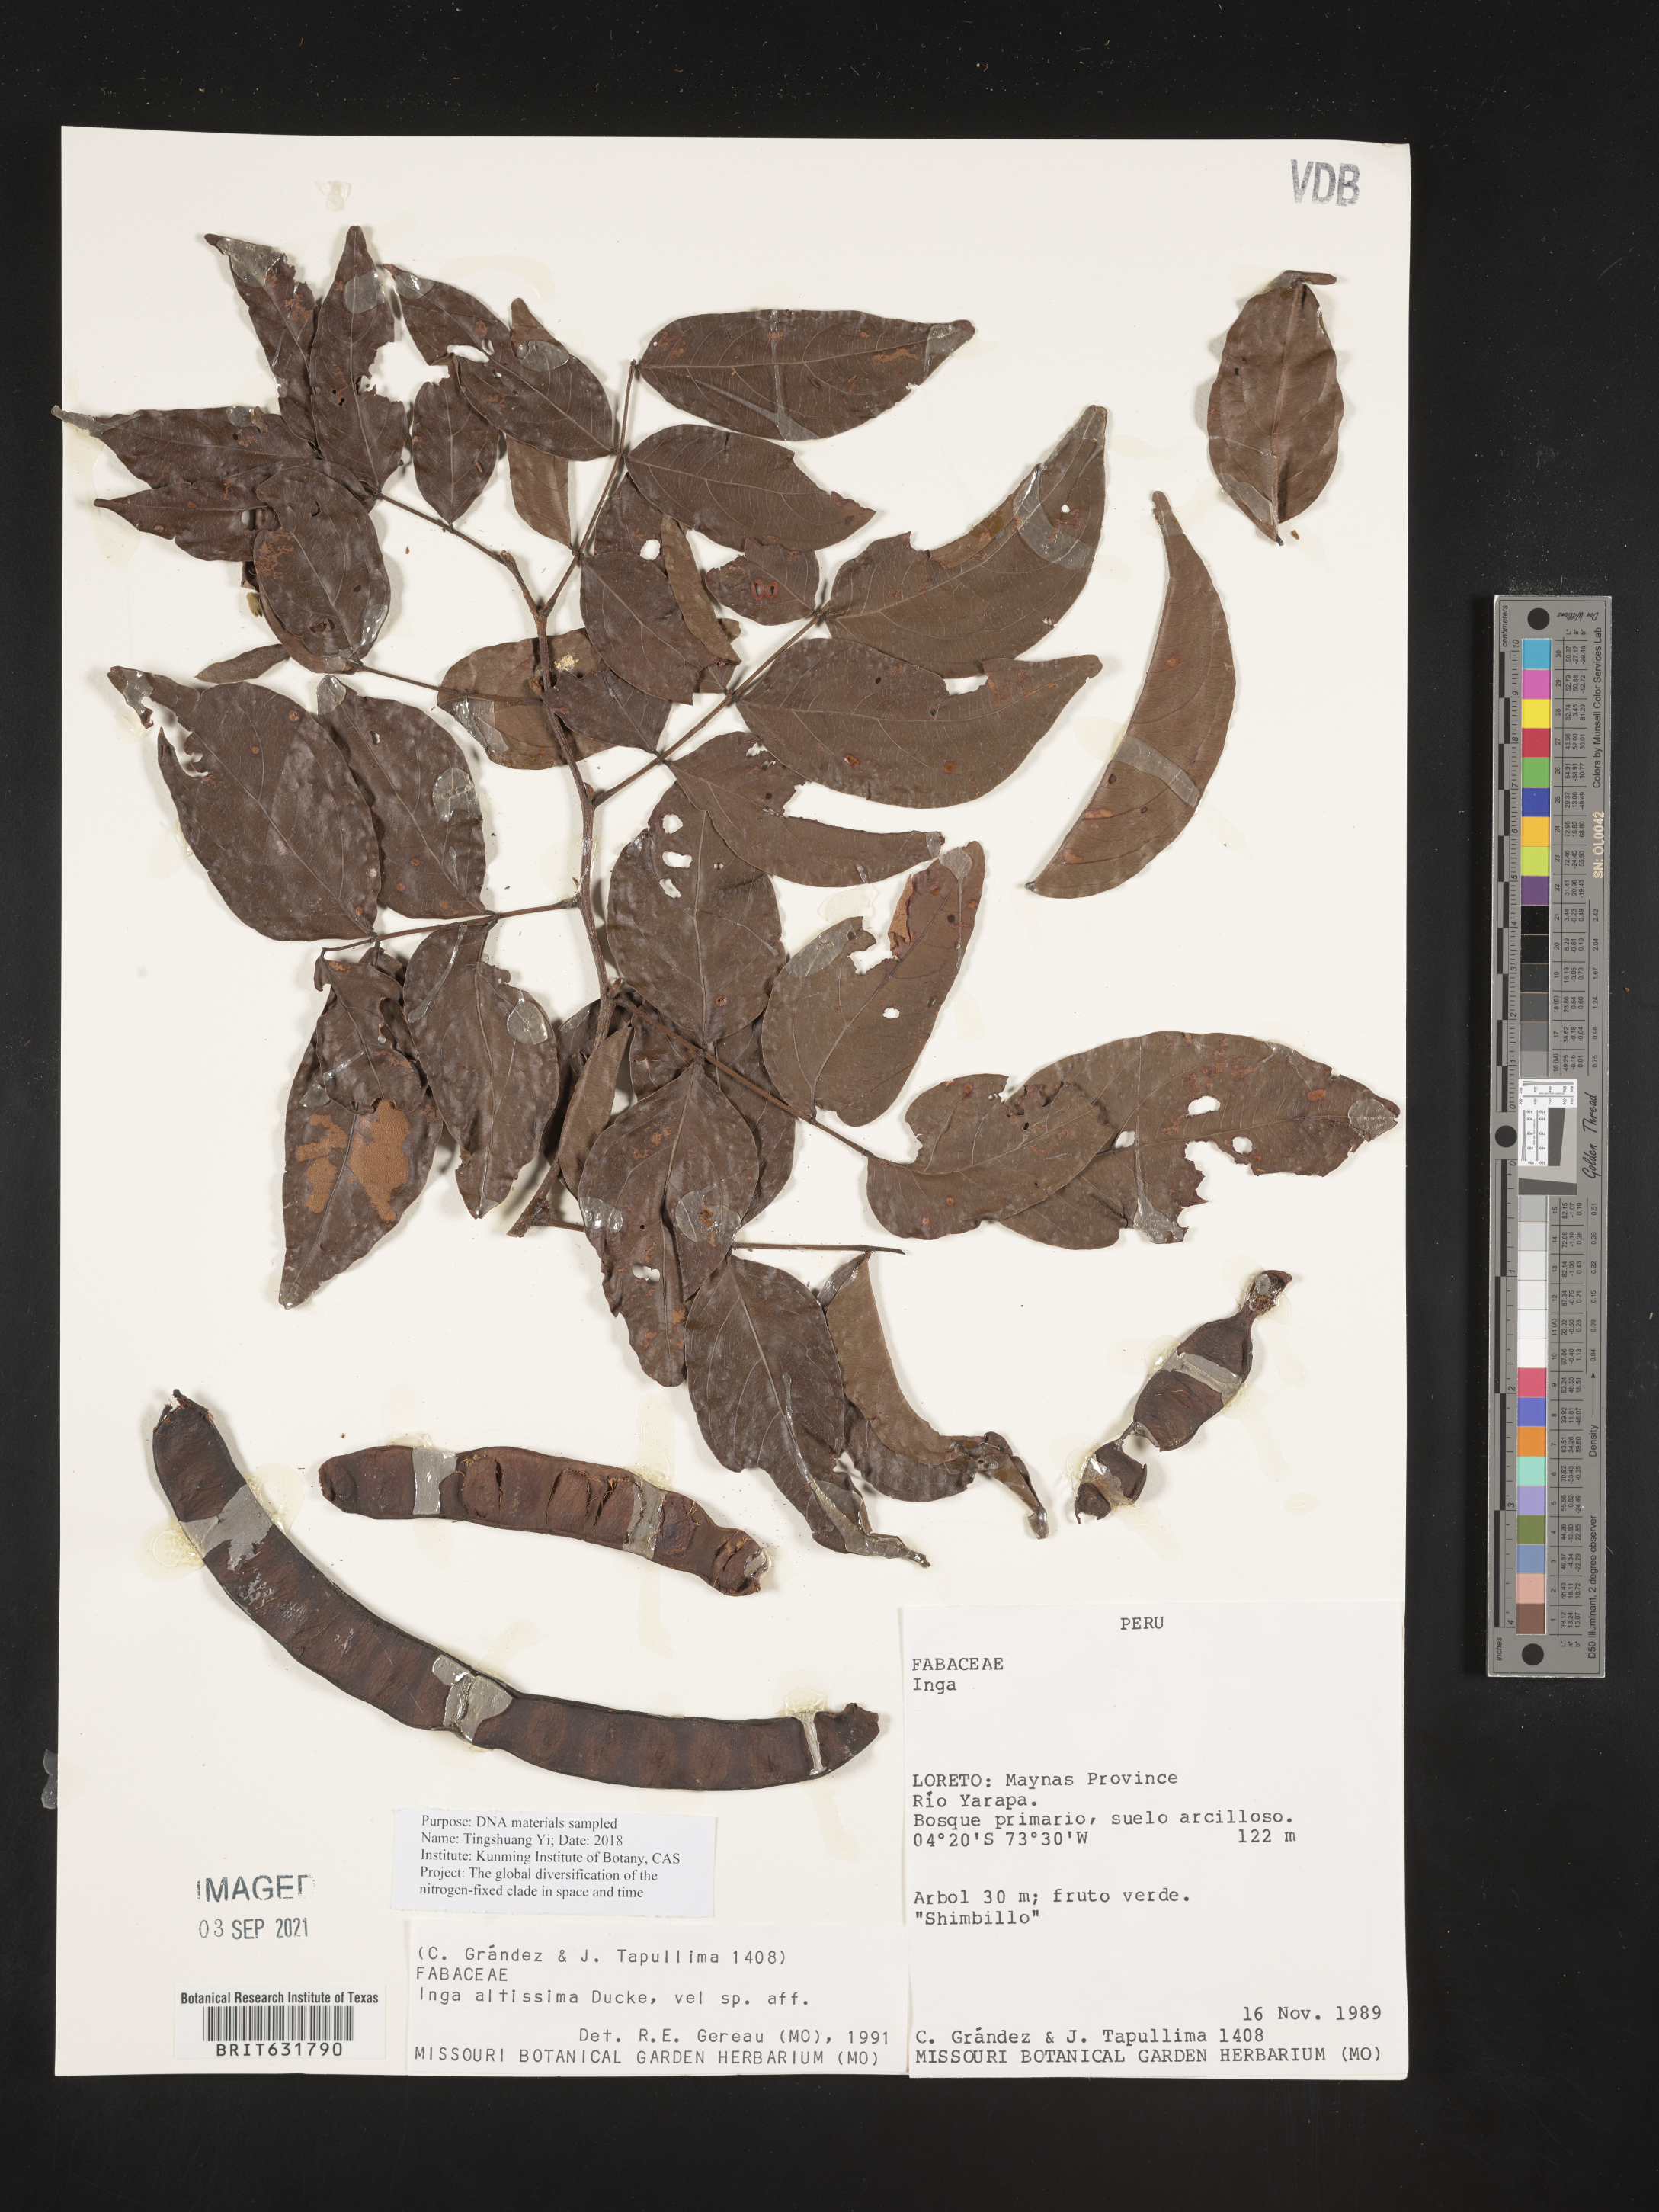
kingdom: Plantae
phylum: Tracheophyta
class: Magnoliopsida
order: Fabales
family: Fabaceae
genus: Inga
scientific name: Inga
